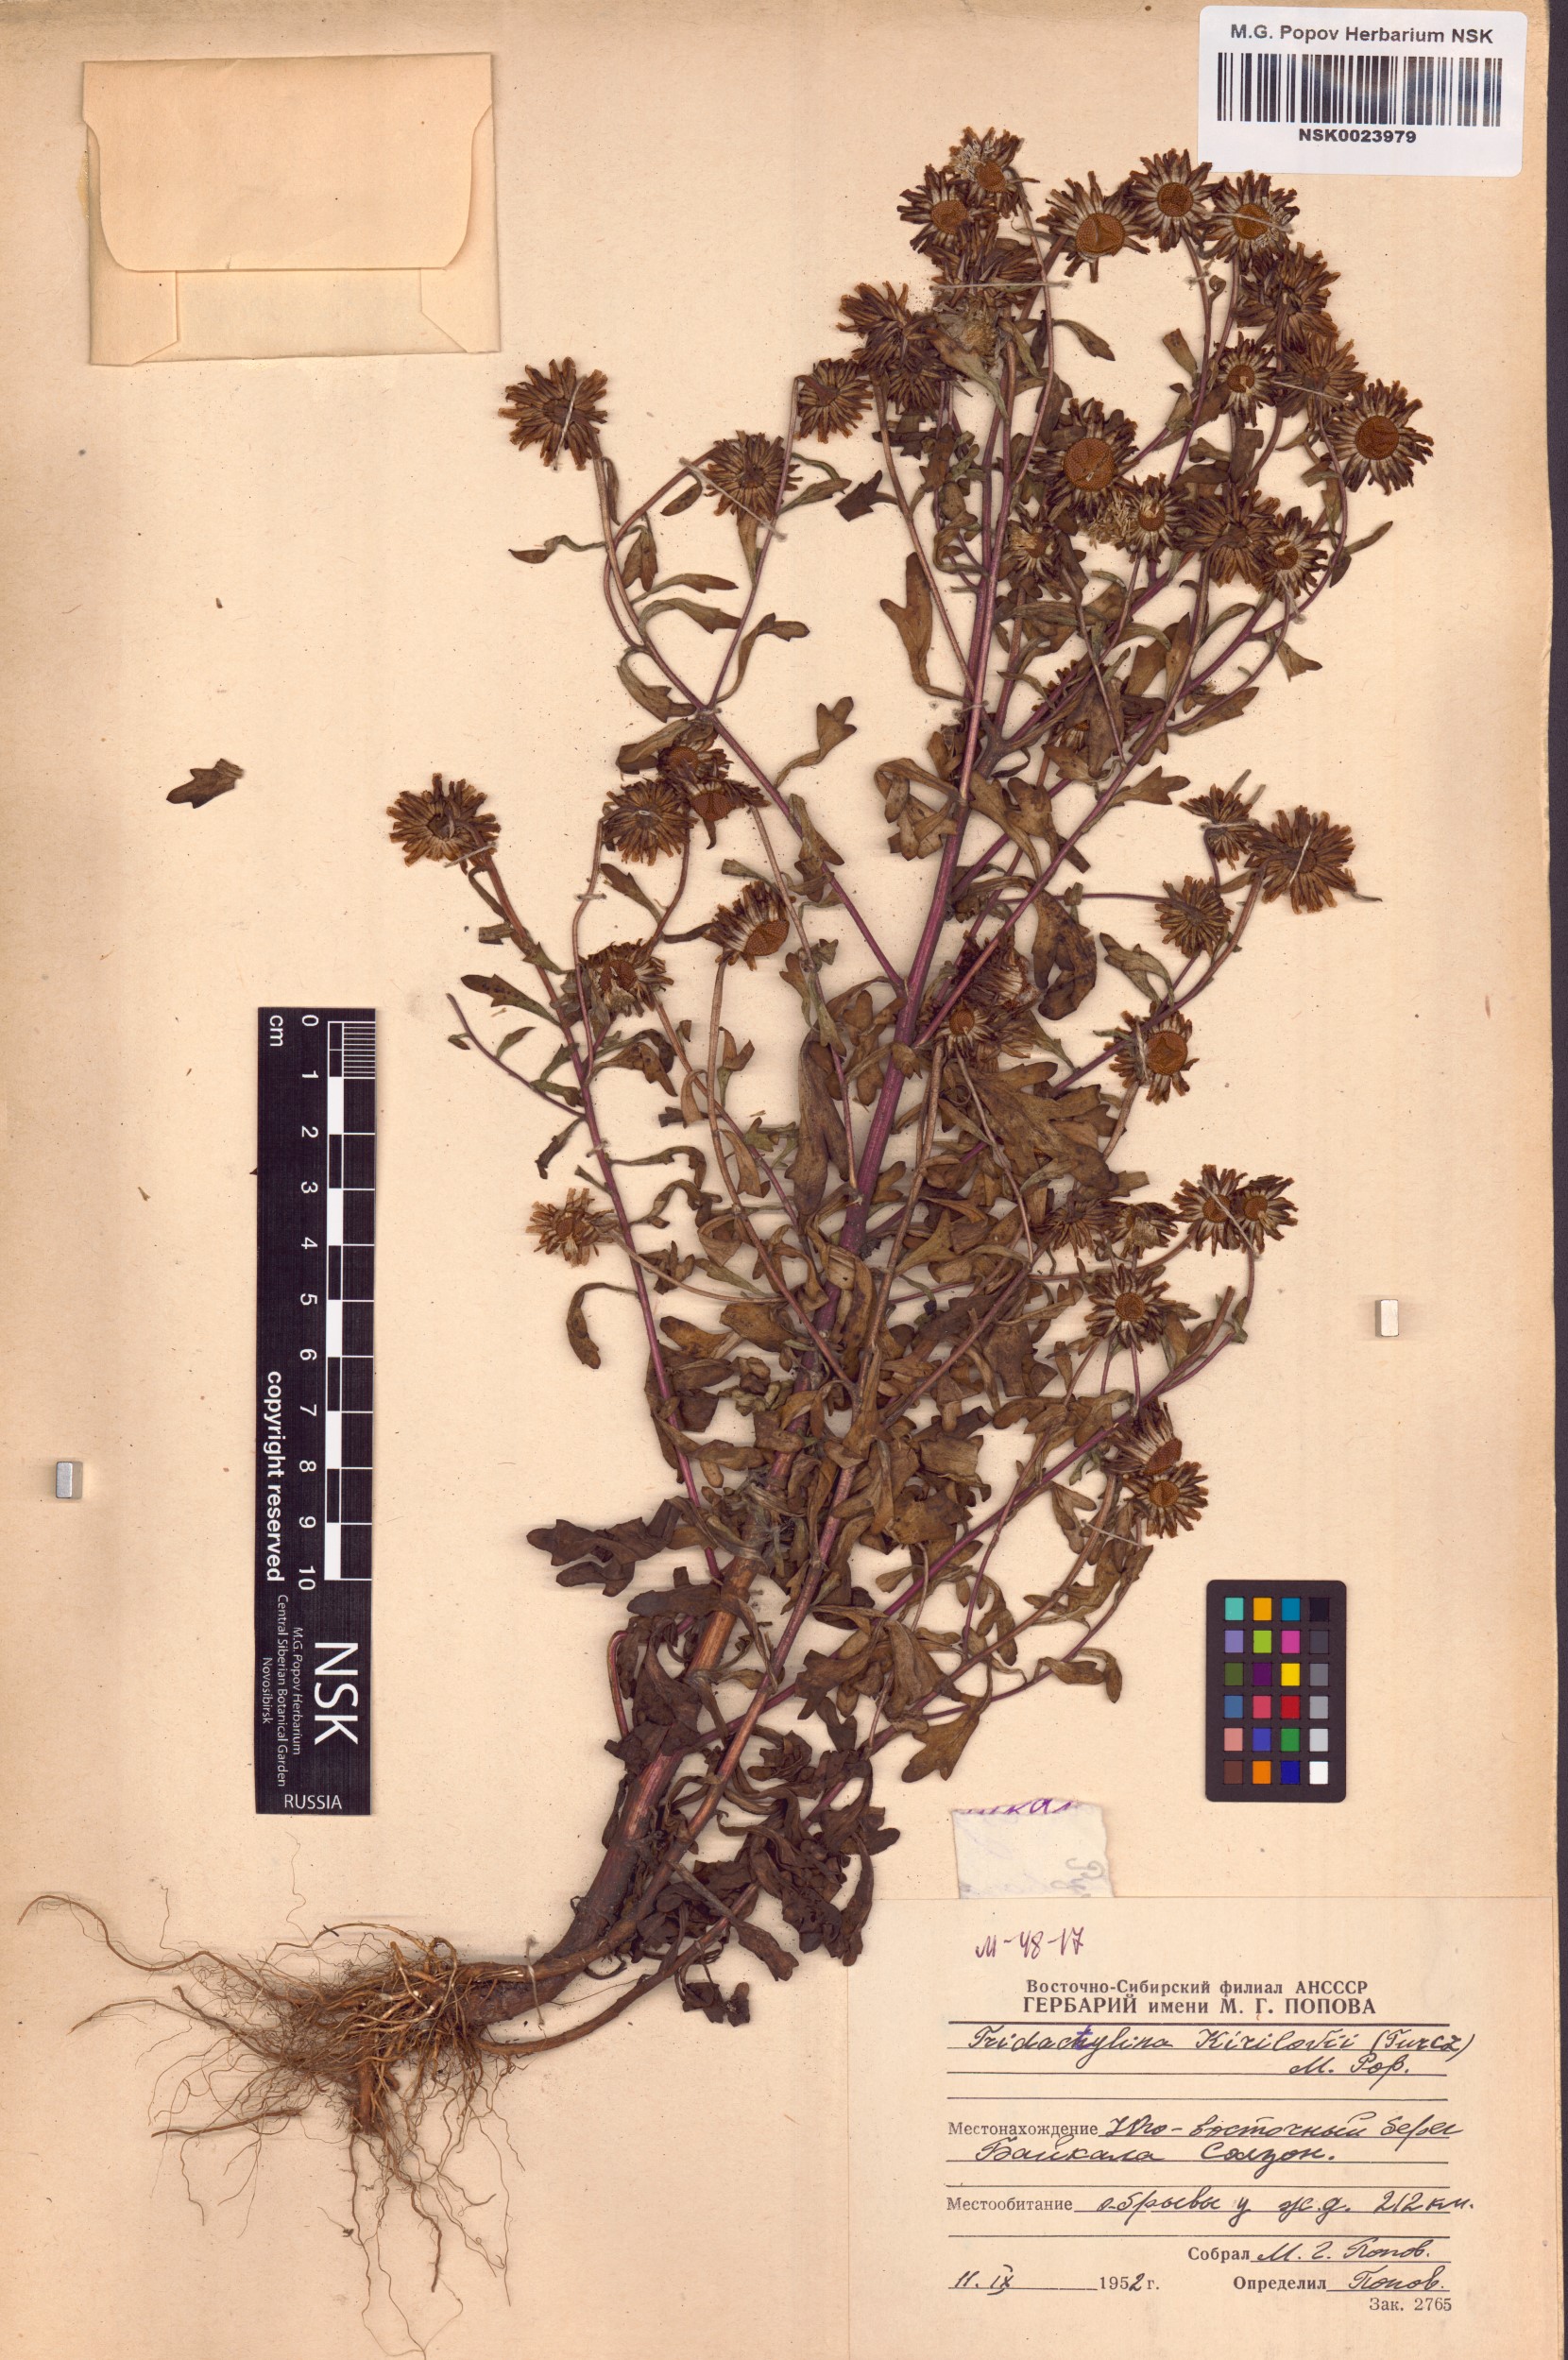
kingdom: Plantae
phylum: Tracheophyta
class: Magnoliopsida
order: Asterales
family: Asteraceae
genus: Tridactylina
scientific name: Tridactylina kirilowii
